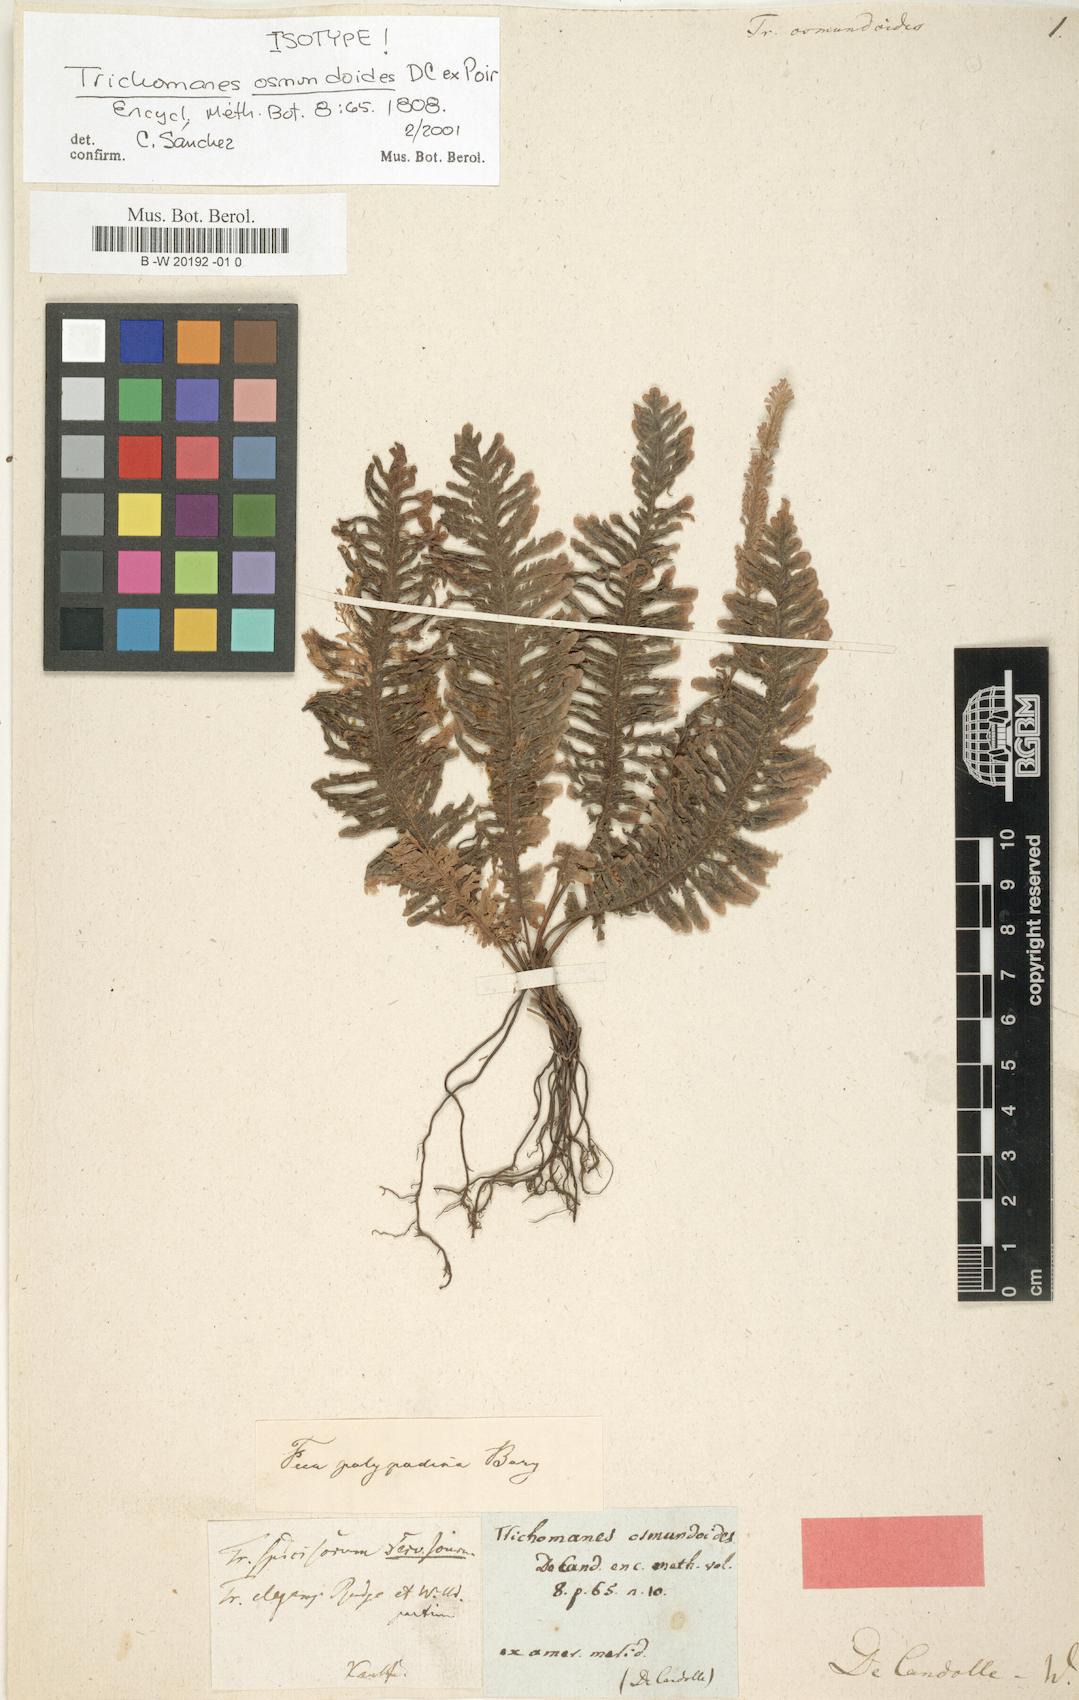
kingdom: Plantae
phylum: Tracheophyta
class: Polypodiopsida
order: Hymenophyllales
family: Hymenophyllaceae
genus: Trichomanes
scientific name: Trichomanes osmundoides
